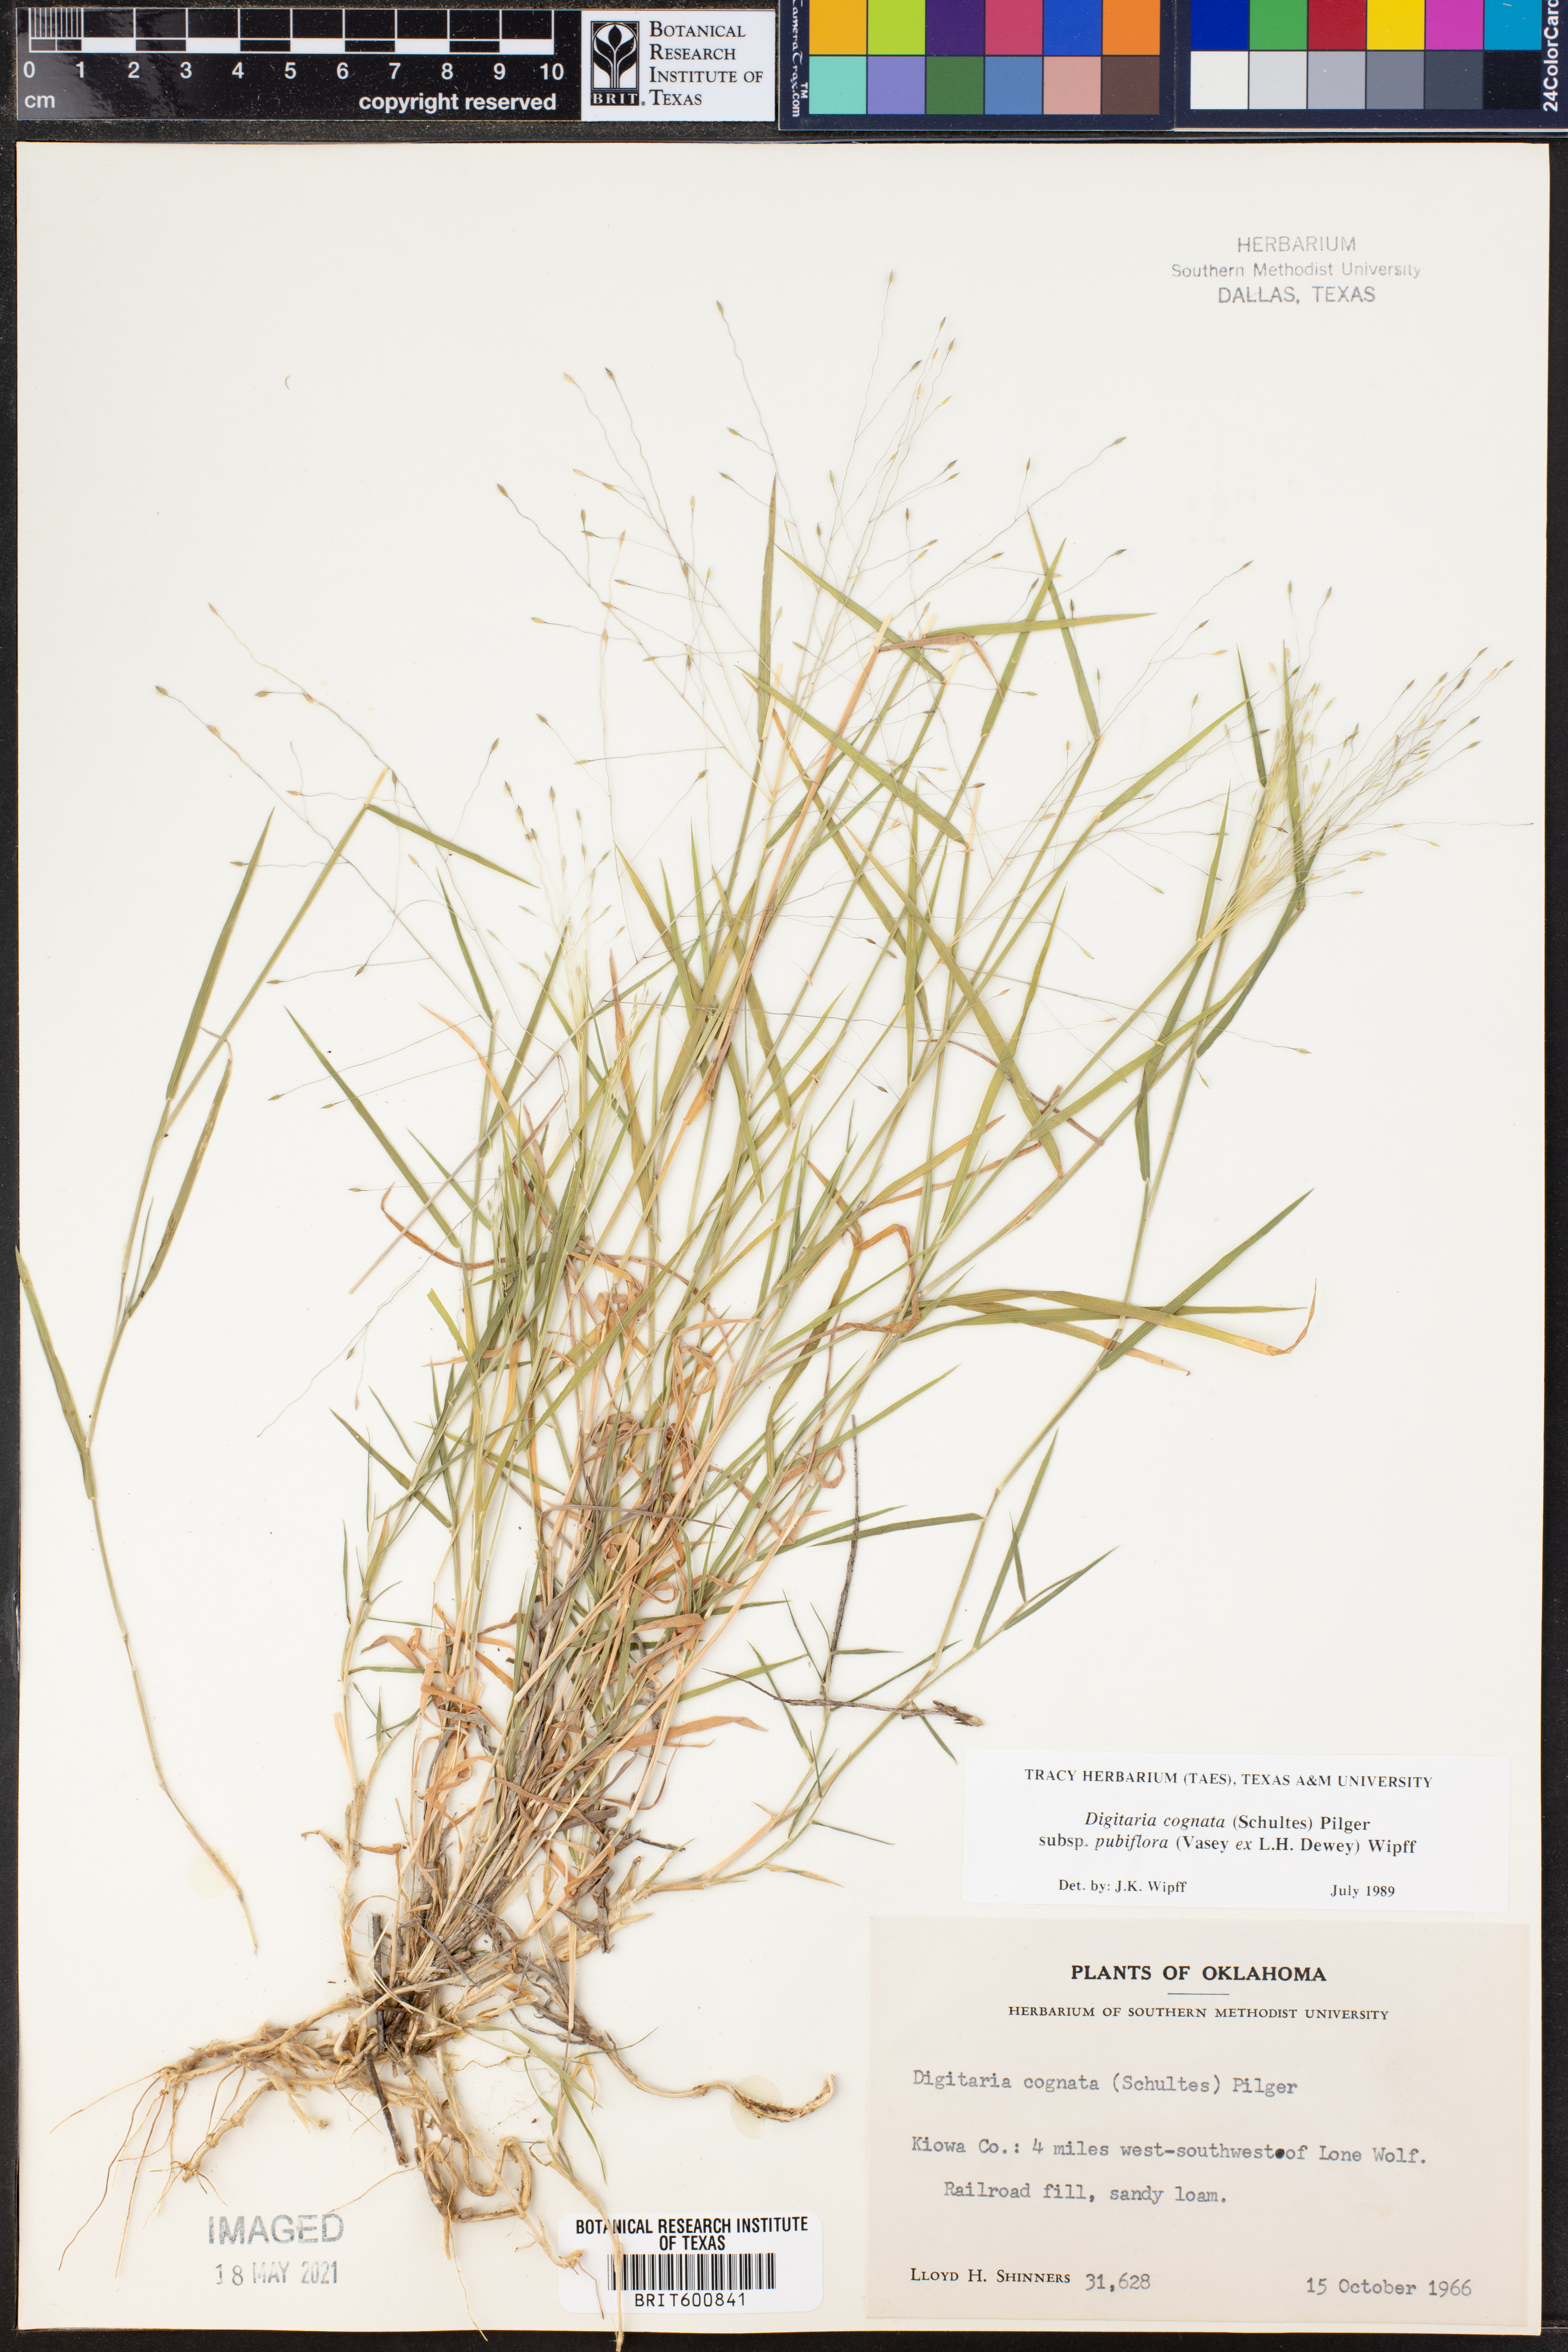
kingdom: Plantae
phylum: Tracheophyta
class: Liliopsida
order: Poales
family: Poaceae
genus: Digitaria
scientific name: Digitaria cognata
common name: Fall witchgrass
